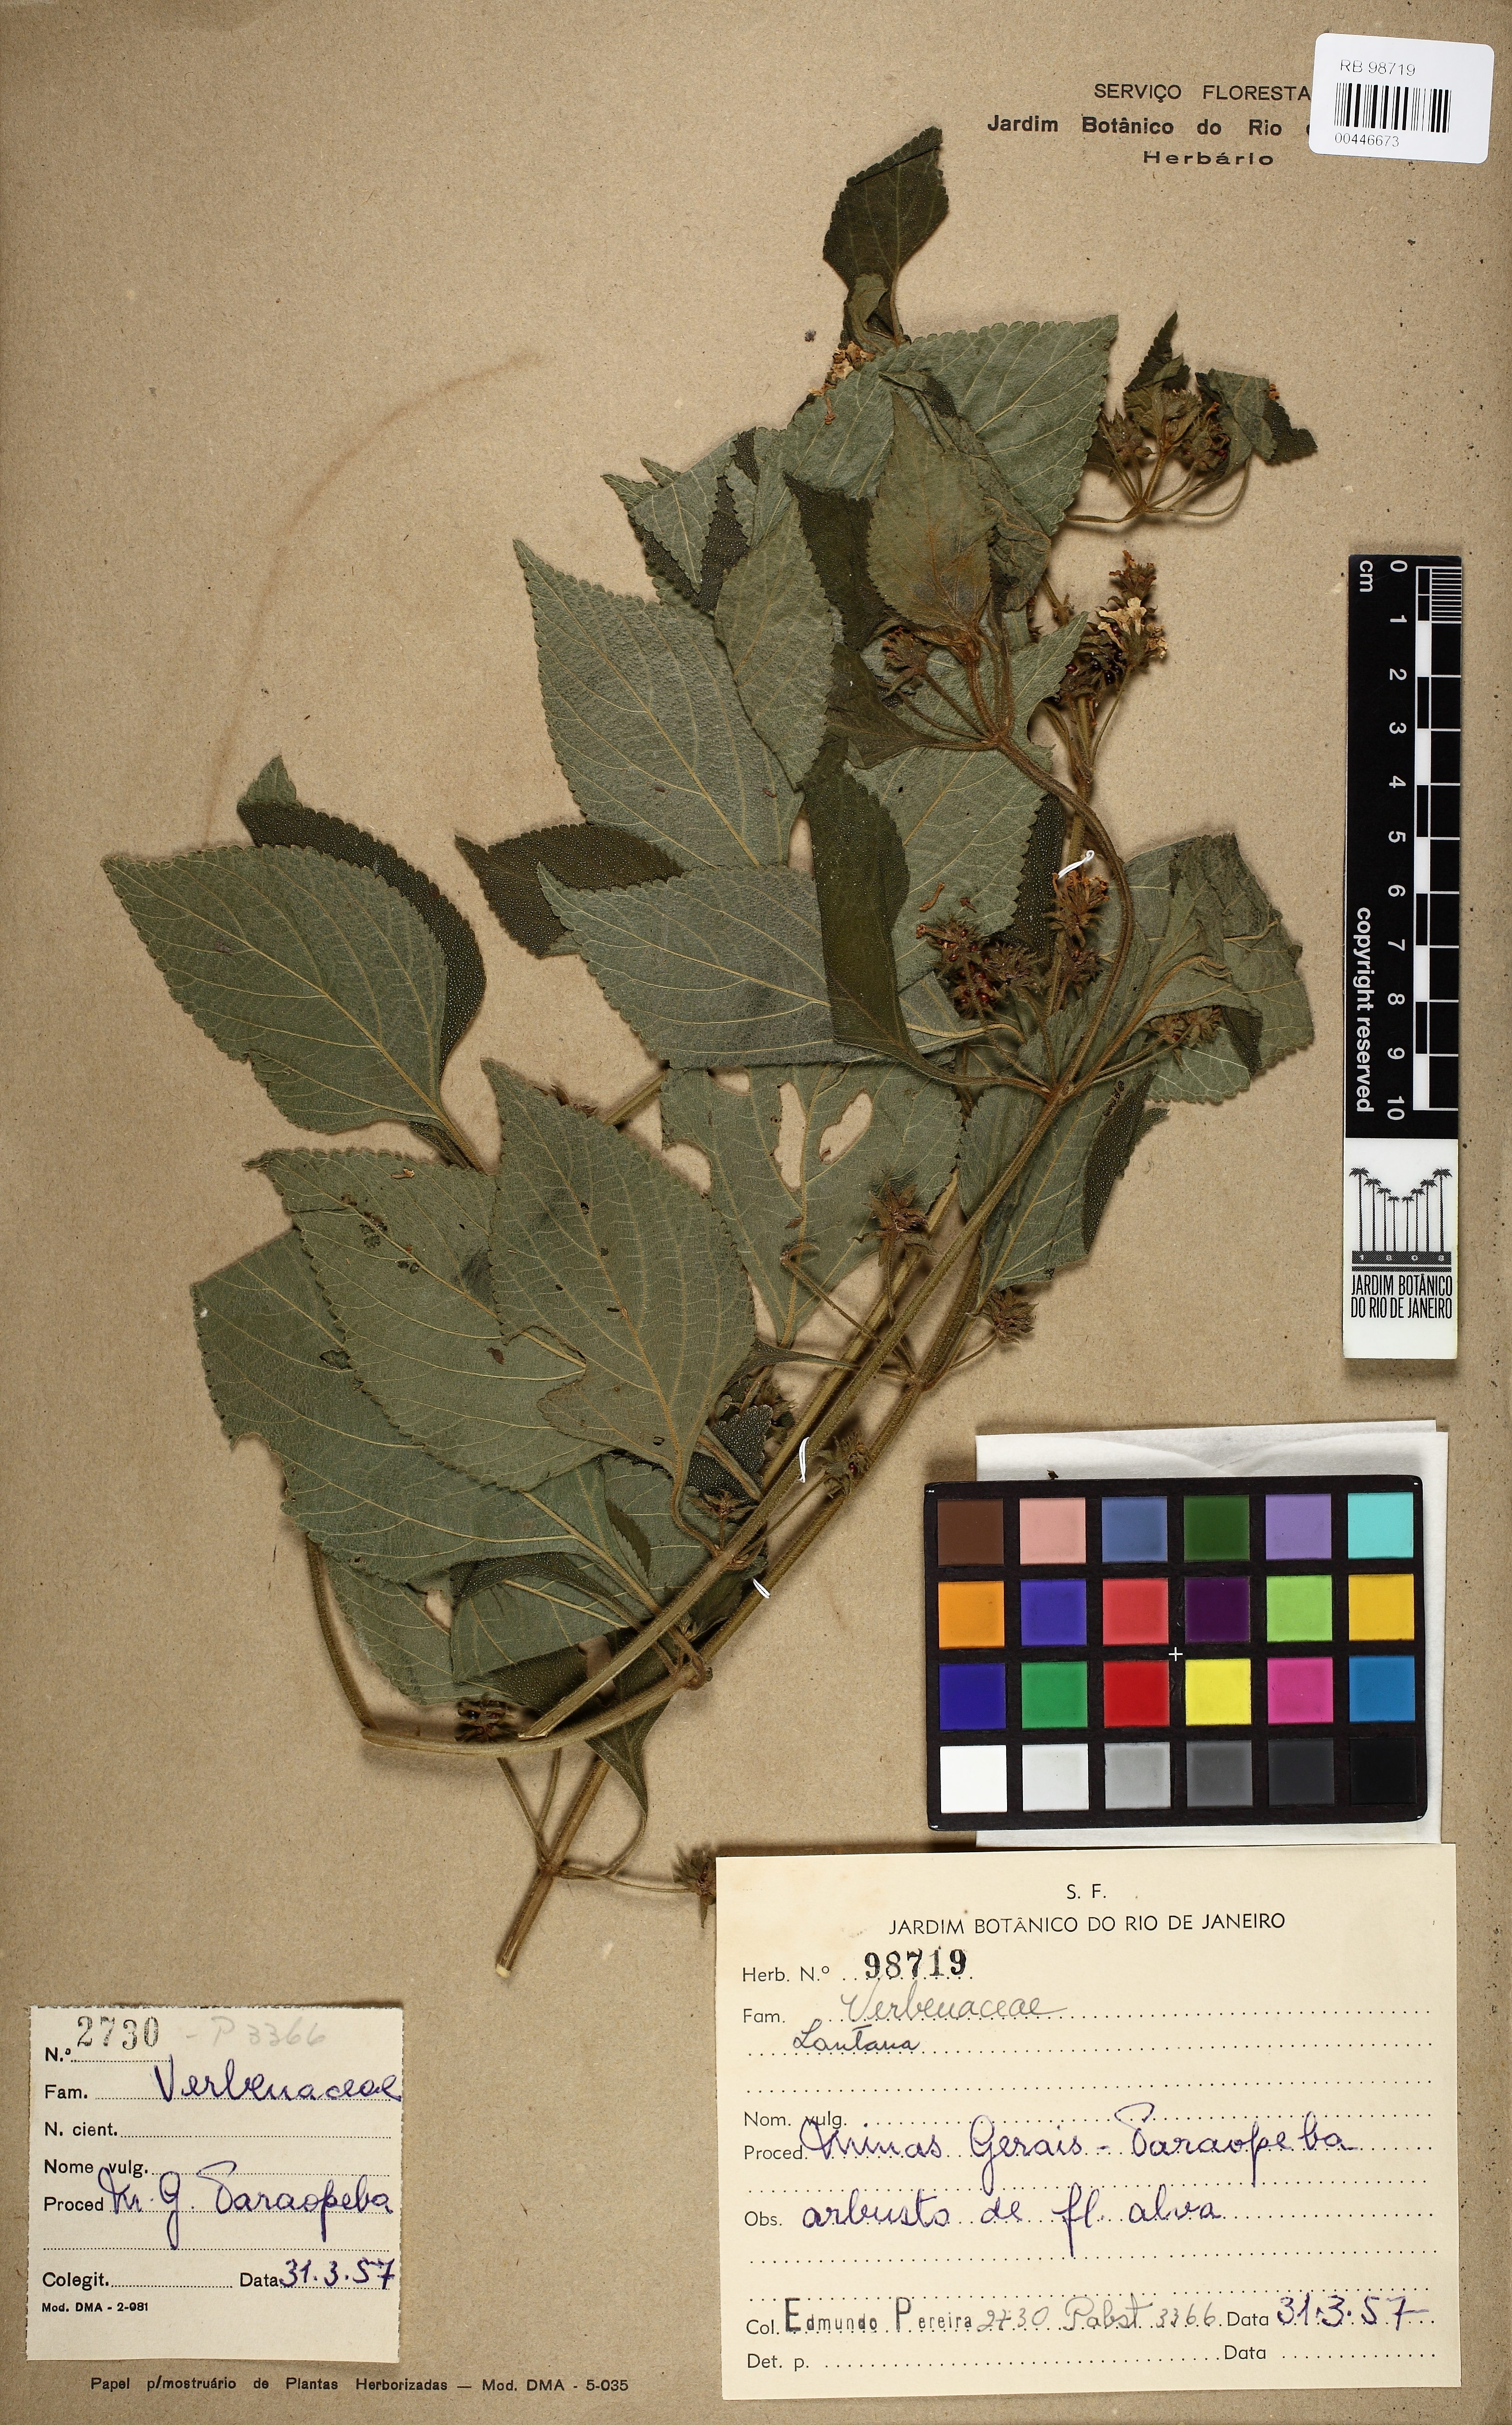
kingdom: Plantae
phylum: Tracheophyta
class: Magnoliopsida
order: Lamiales
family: Verbenaceae
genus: Lantana
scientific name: Lantana
